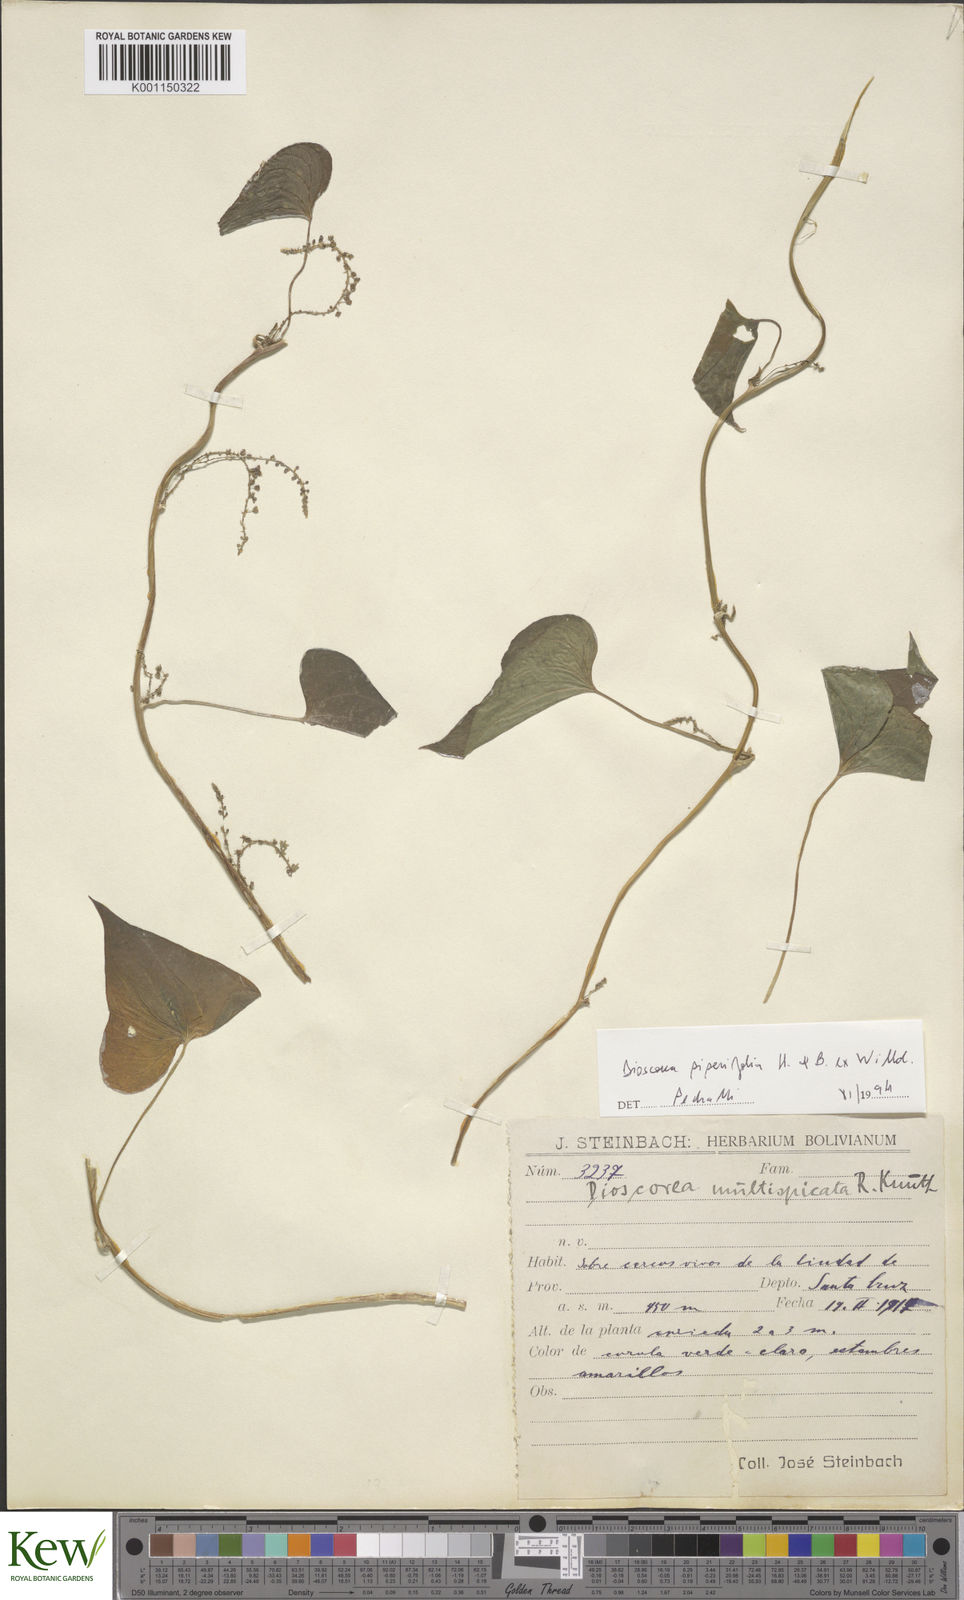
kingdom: Plantae
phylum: Tracheophyta
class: Liliopsida
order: Dioscoreales
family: Dioscoreaceae
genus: Dioscorea
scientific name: Dioscorea piperifolia
